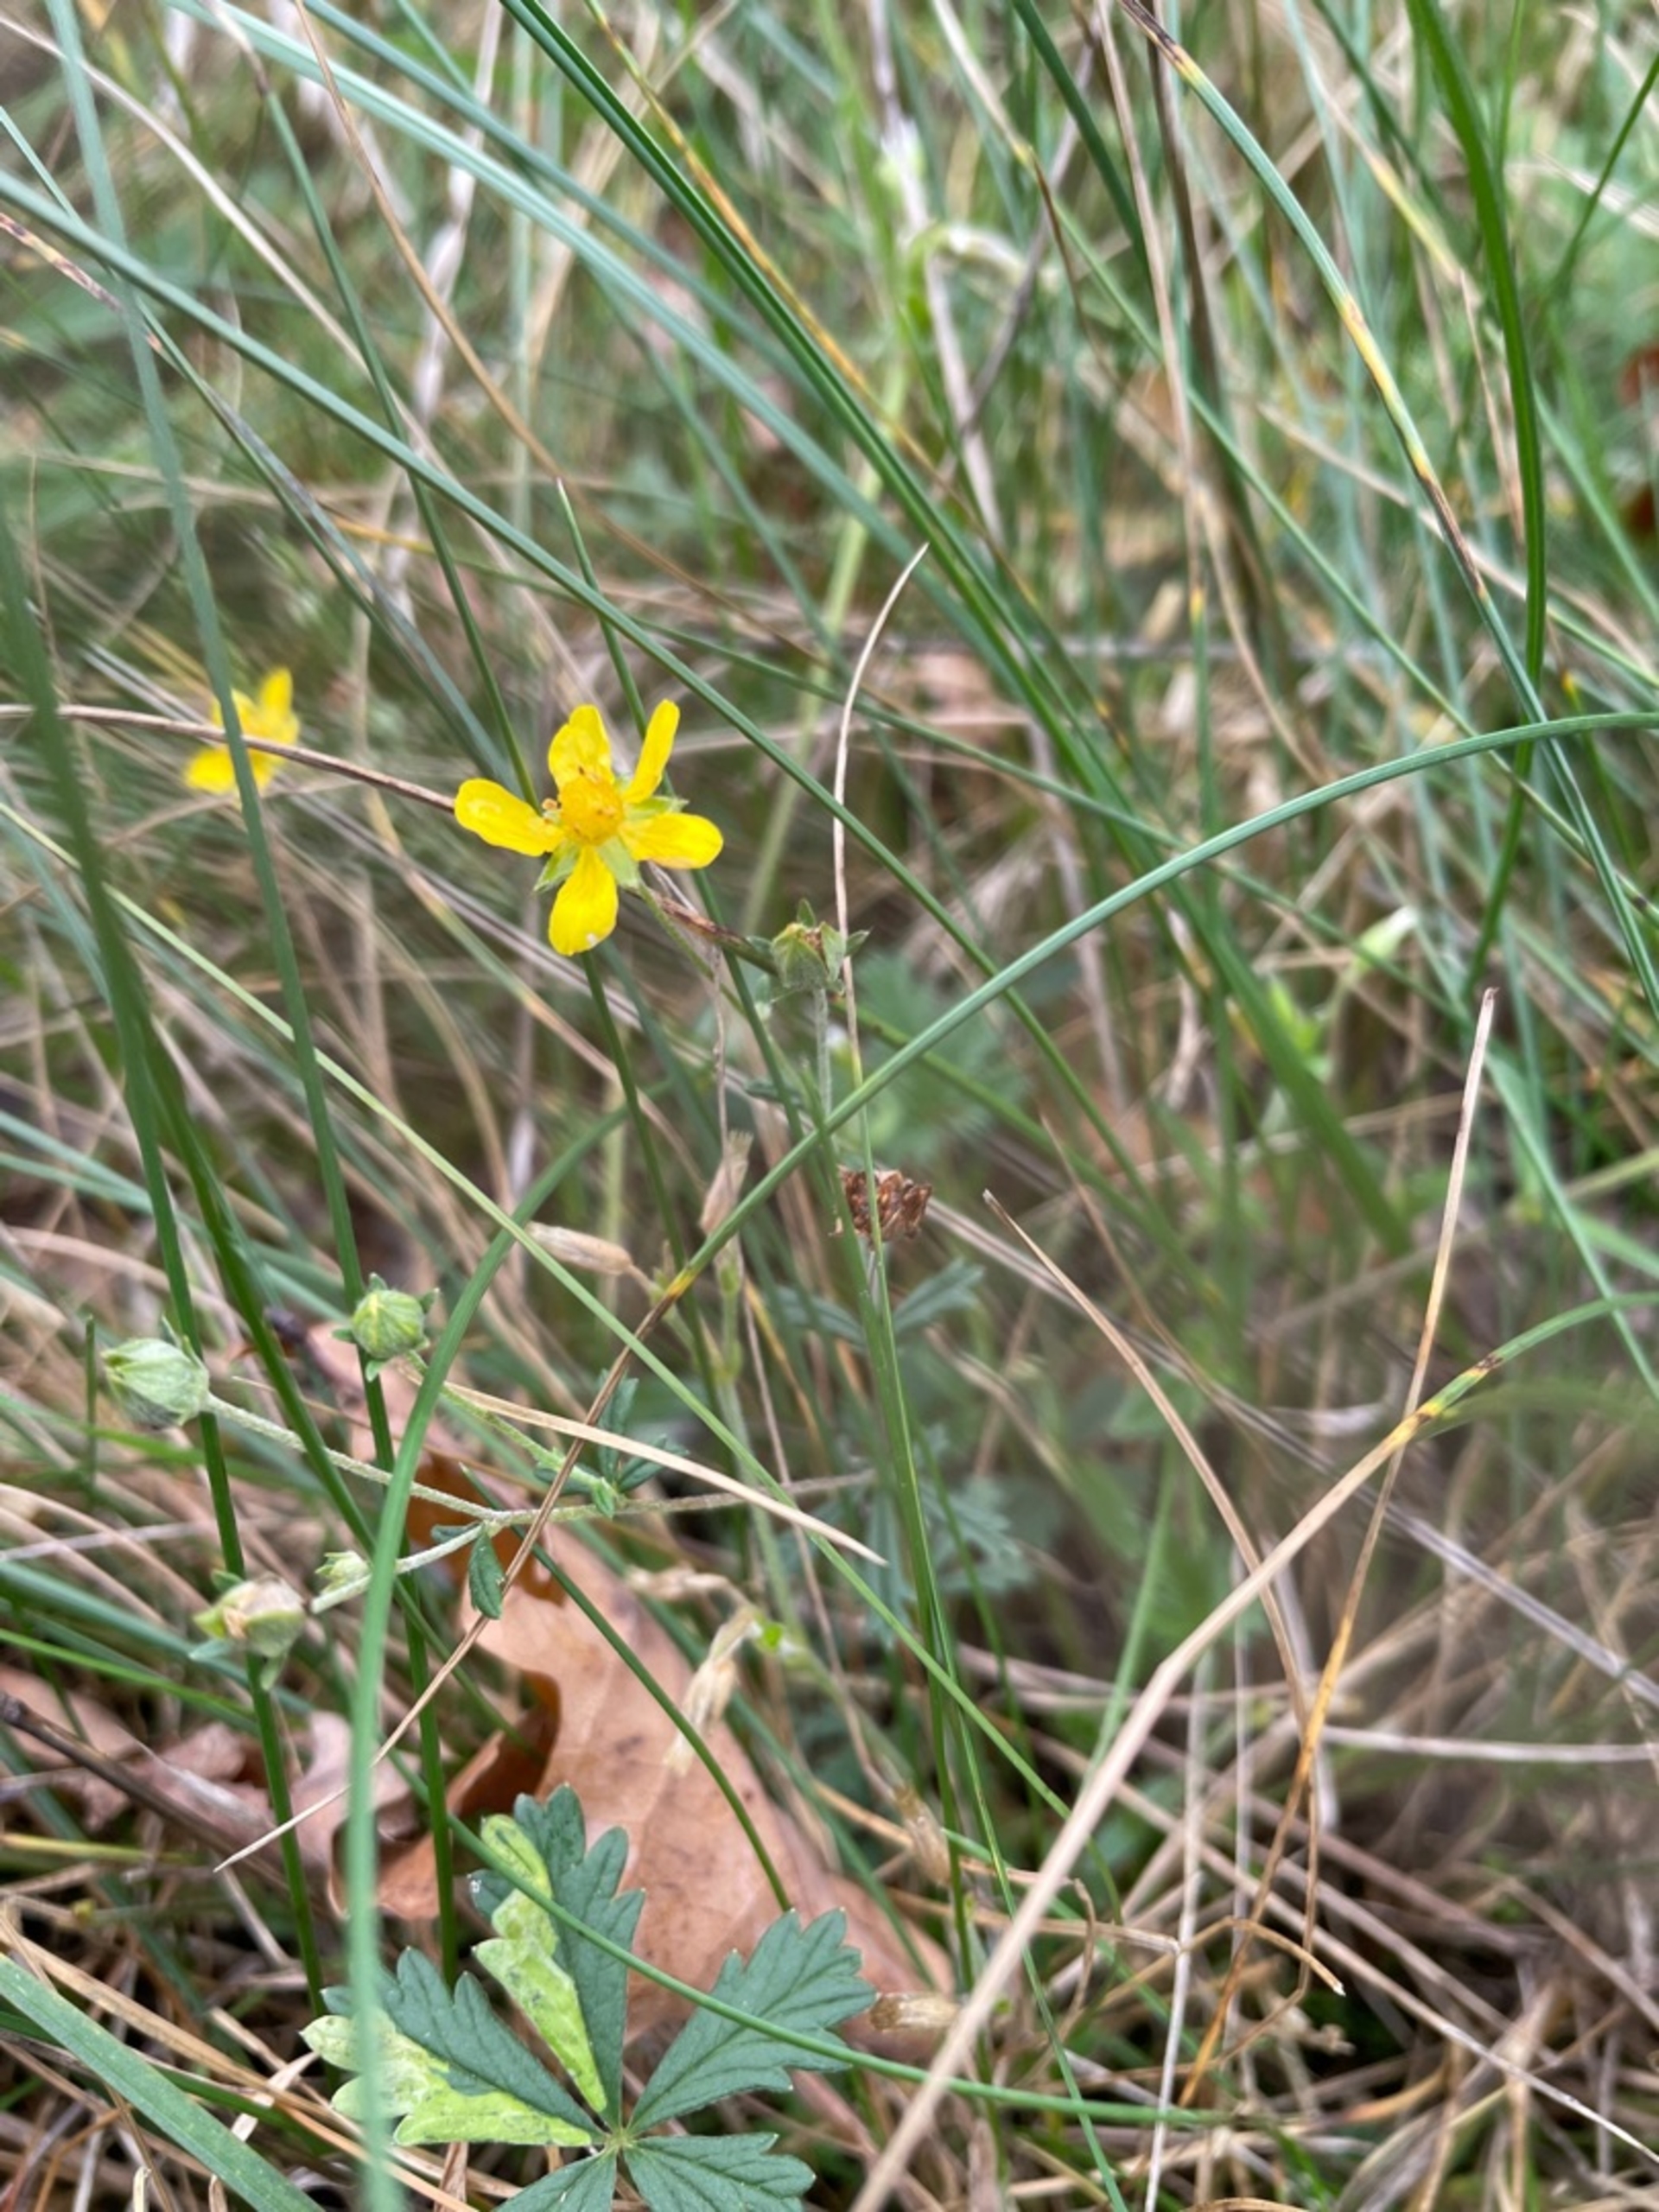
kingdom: Plantae
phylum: Tracheophyta
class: Magnoliopsida
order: Rosales
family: Rosaceae
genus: Potentilla
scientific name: Potentilla argentea
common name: Sølv-potentil
